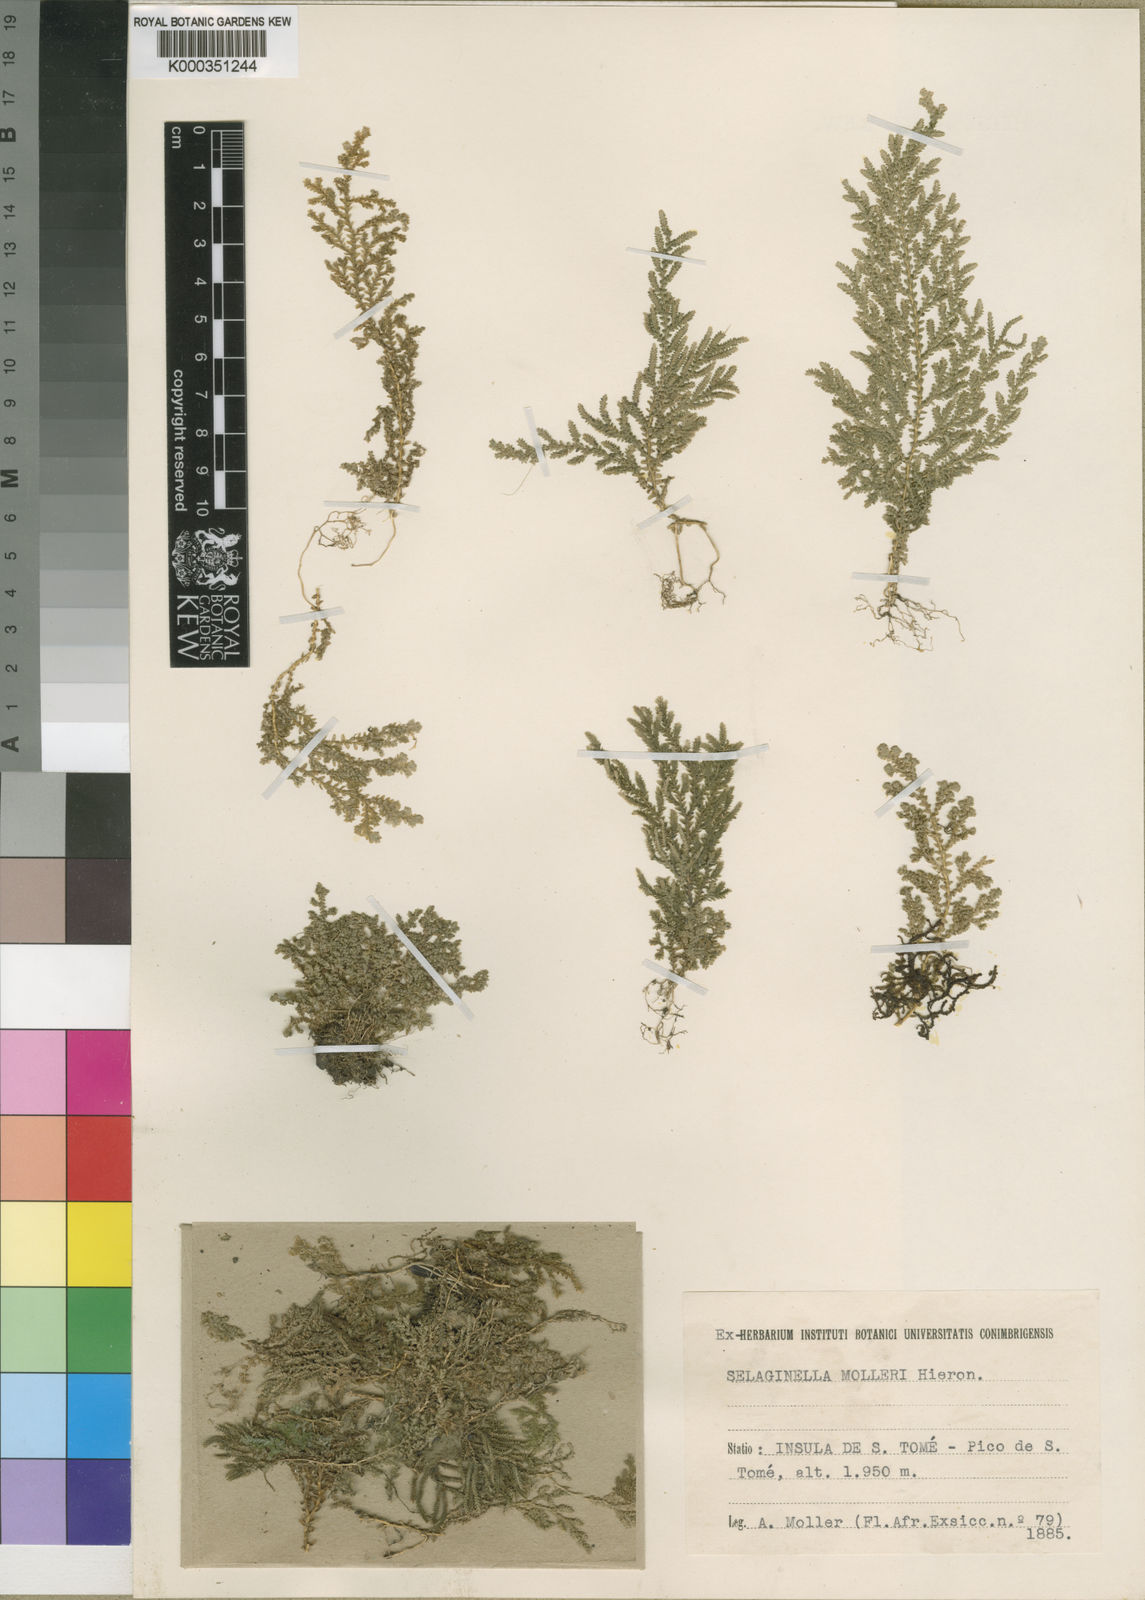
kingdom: Plantae
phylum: Tracheophyta
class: Lycopodiopsida
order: Selaginellales
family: Selaginellaceae
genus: Selaginella
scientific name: Selaginella molleri
